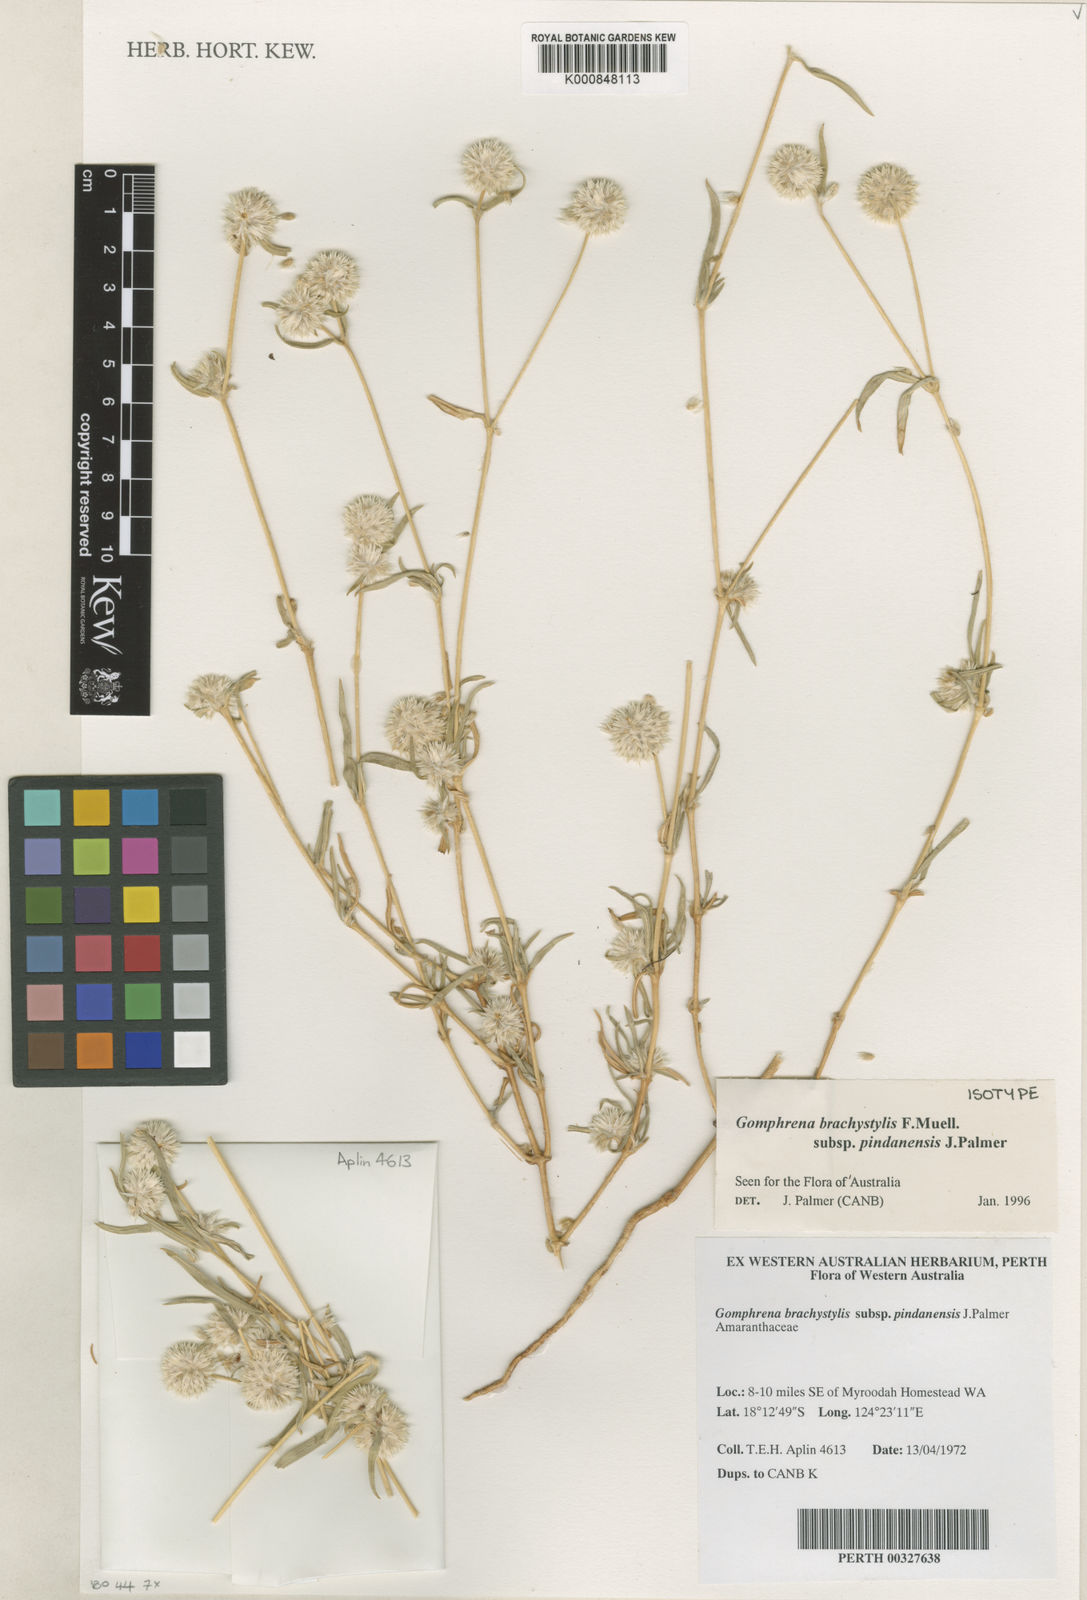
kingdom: Plantae
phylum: Tracheophyta
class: Magnoliopsida
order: Caryophyllales
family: Amaranthaceae
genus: Gomphrena
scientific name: Gomphrena brachystylis
